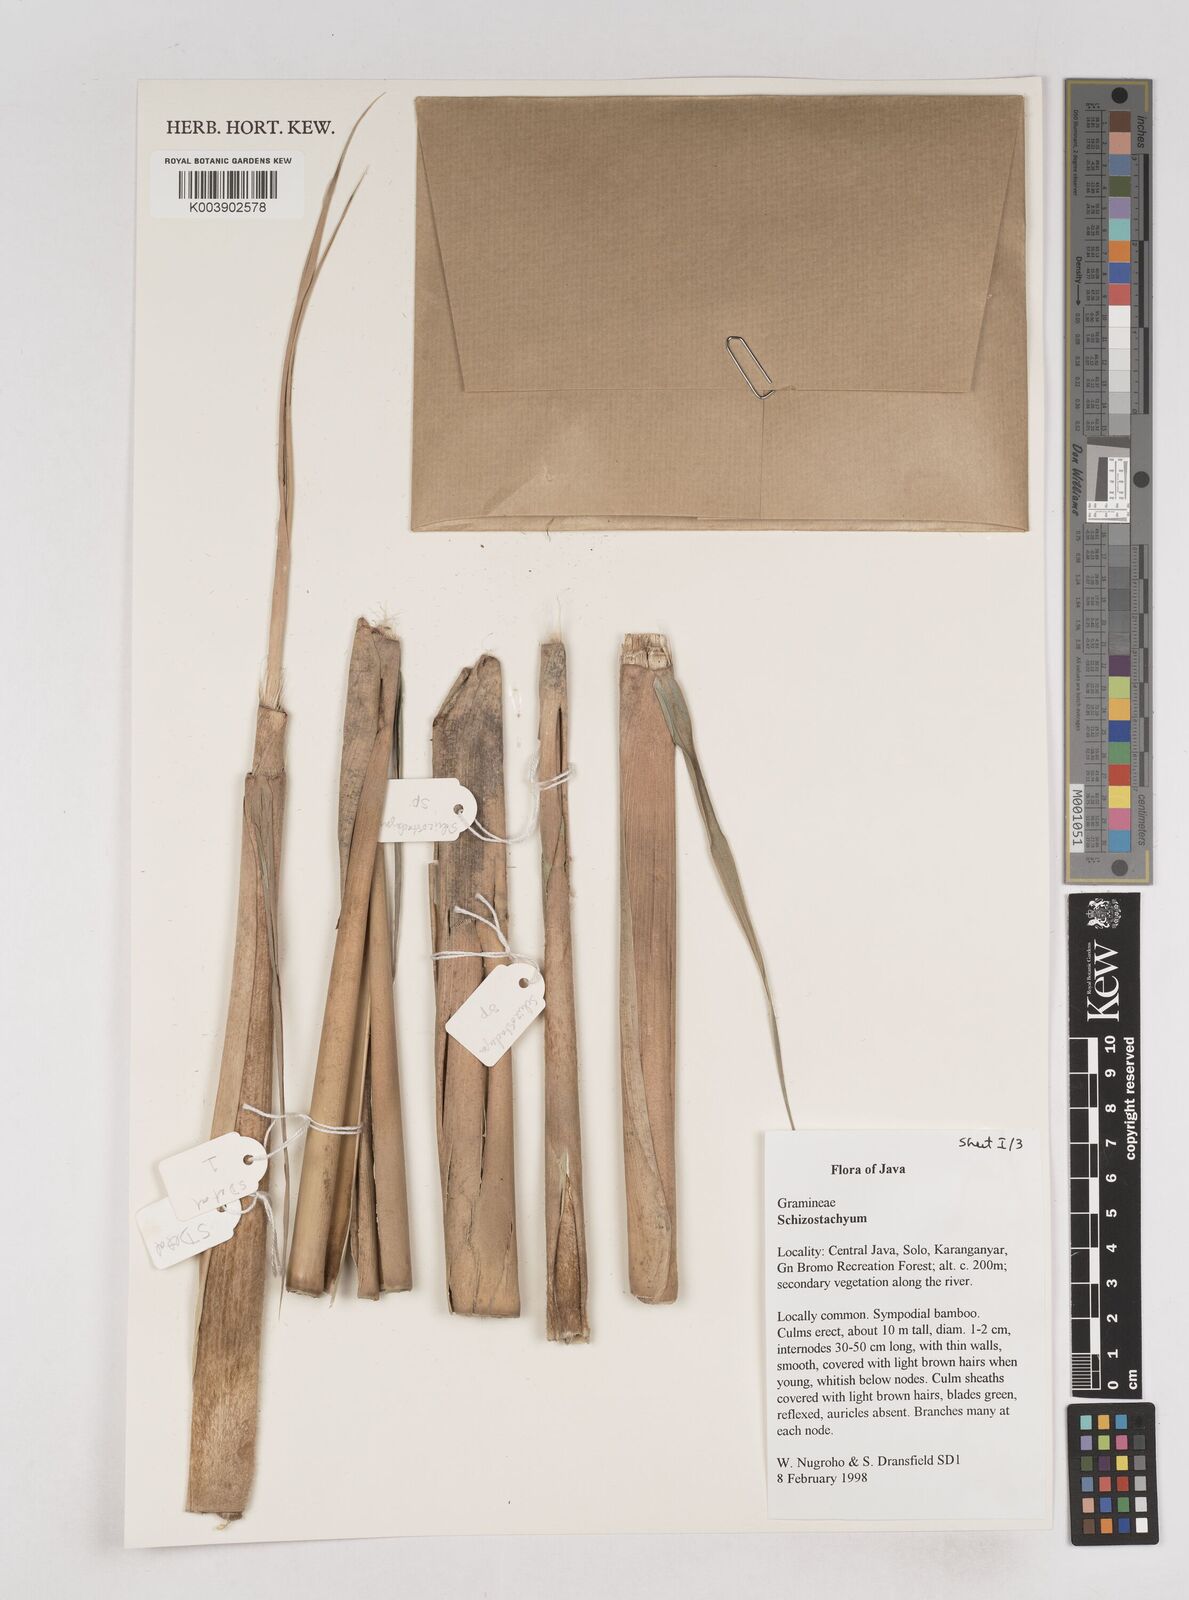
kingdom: Plantae
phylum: Tracheophyta
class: Liliopsida
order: Poales
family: Poaceae
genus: Schizostachyum
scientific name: Schizostachyum
